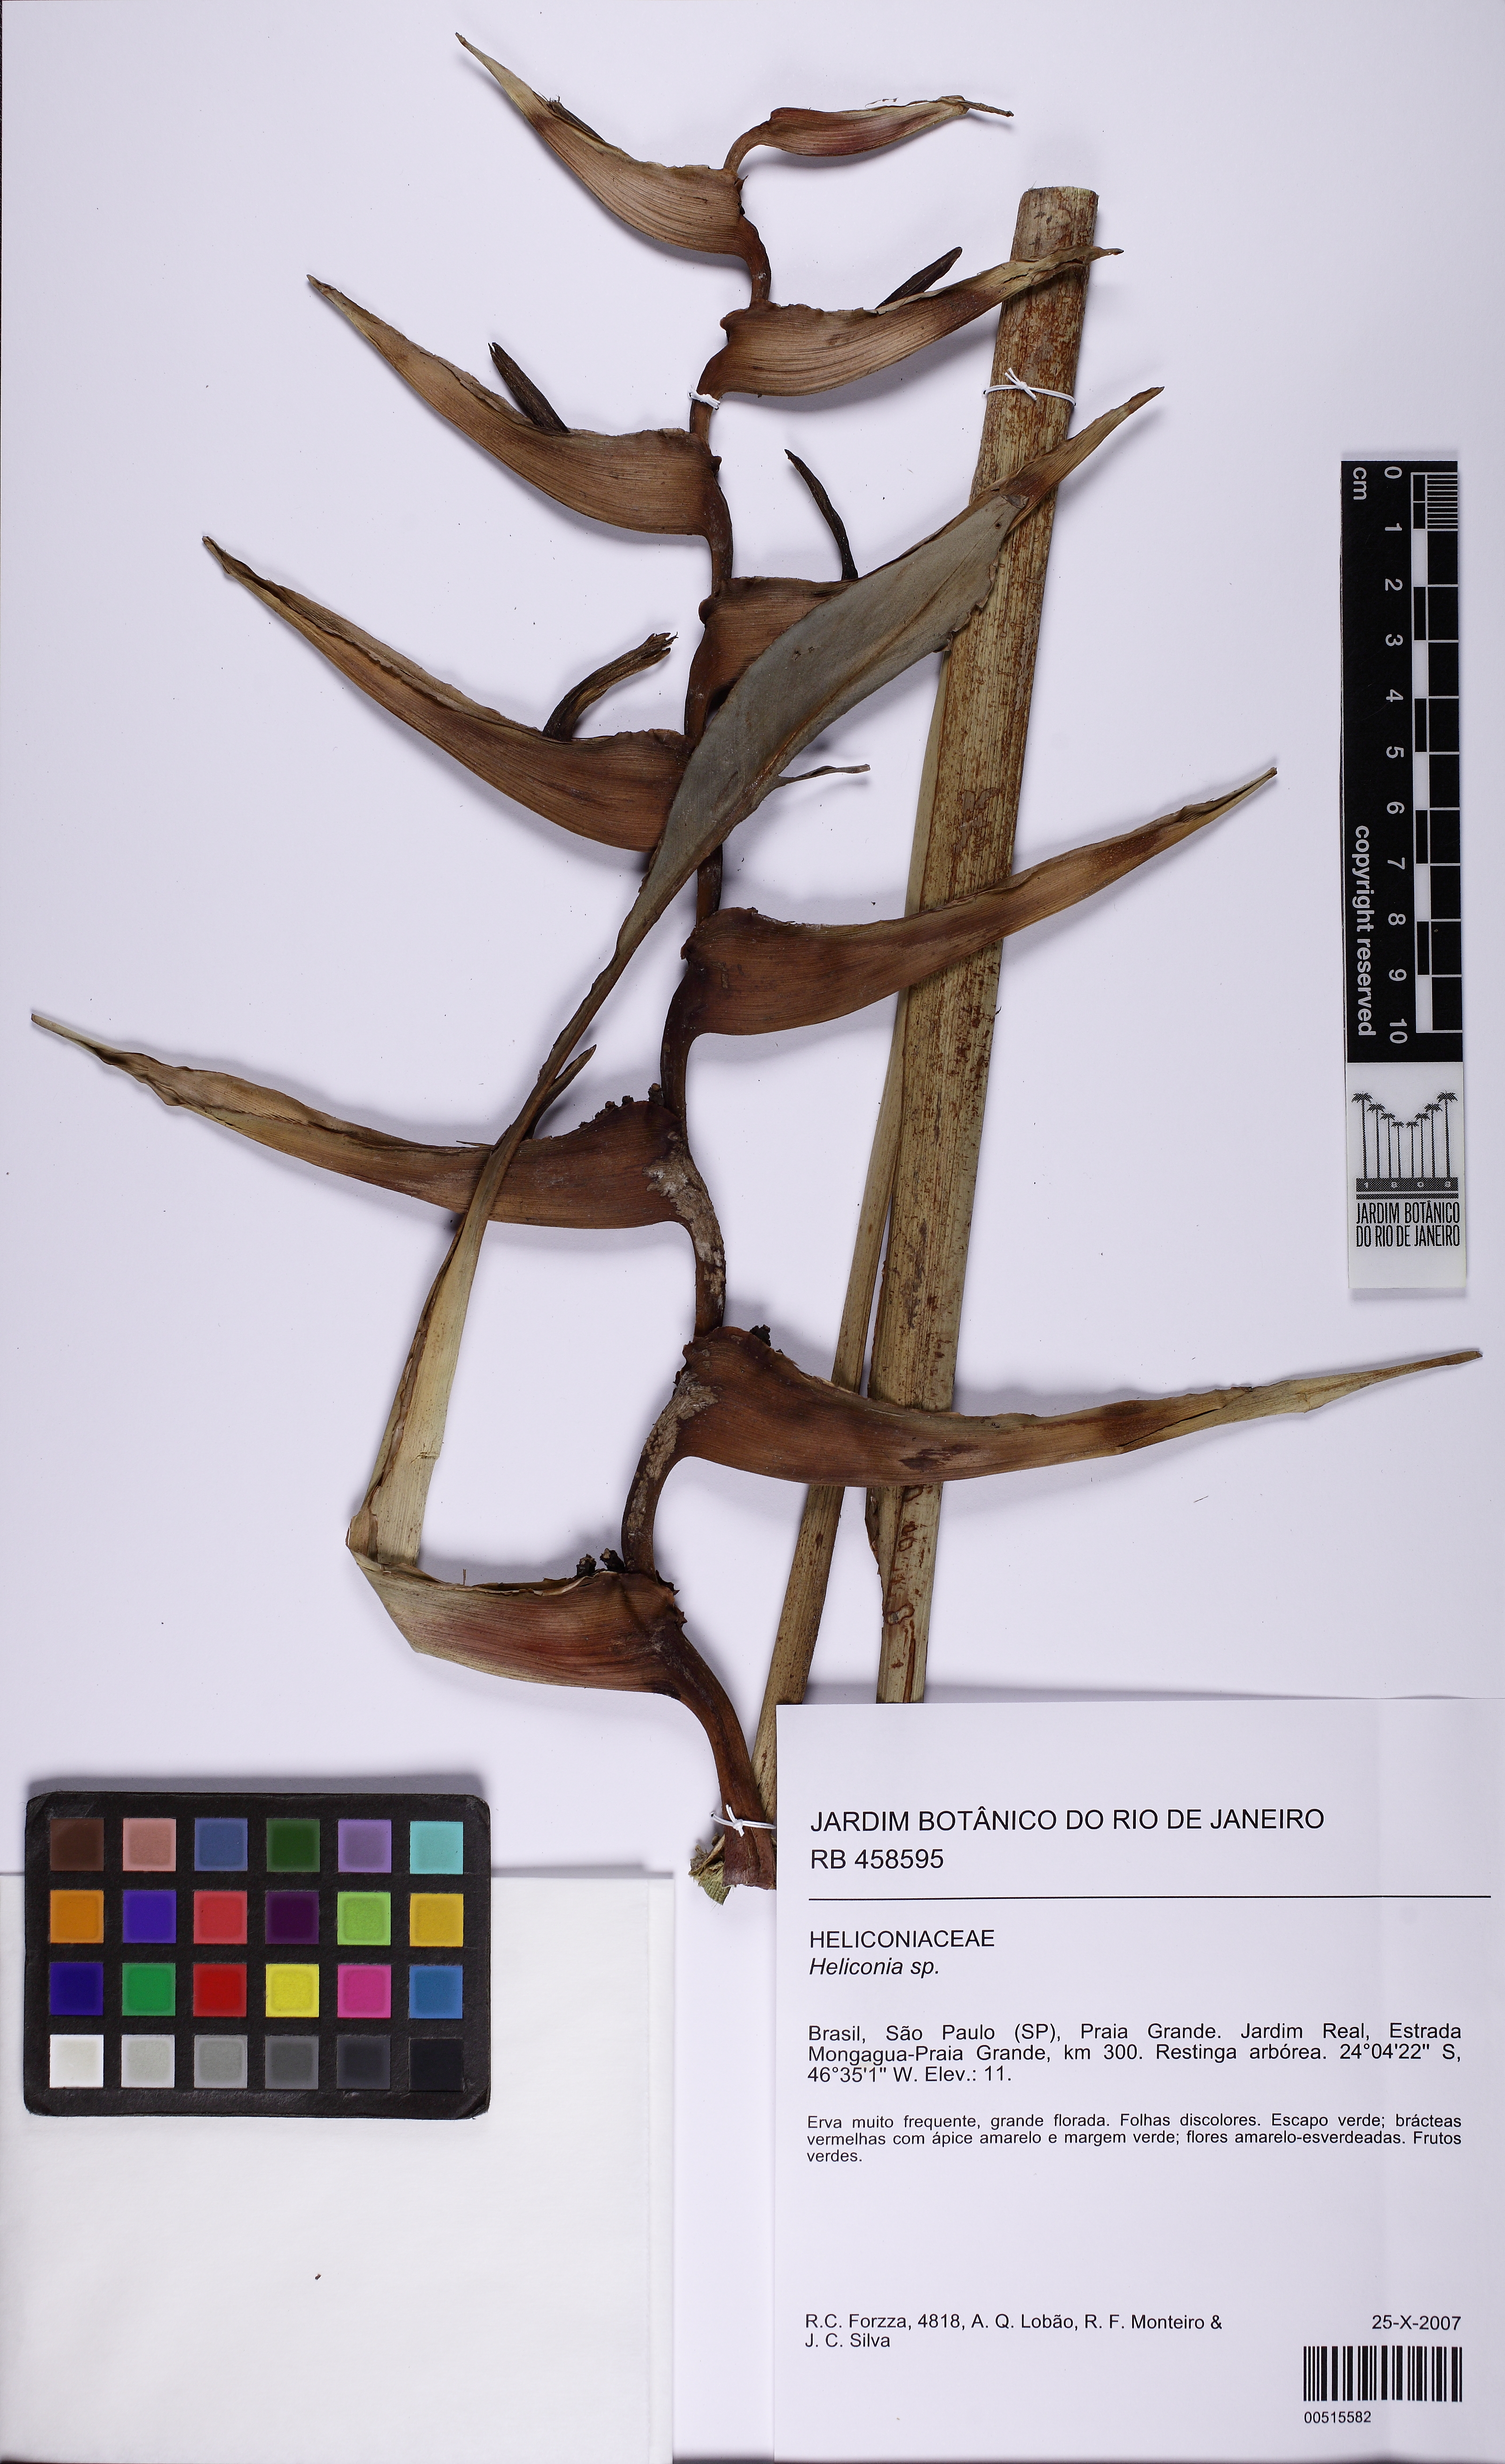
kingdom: Plantae
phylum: Tracheophyta
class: Liliopsida
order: Zingiberales
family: Heliconiaceae
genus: Heliconia
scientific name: Heliconia farinosa
